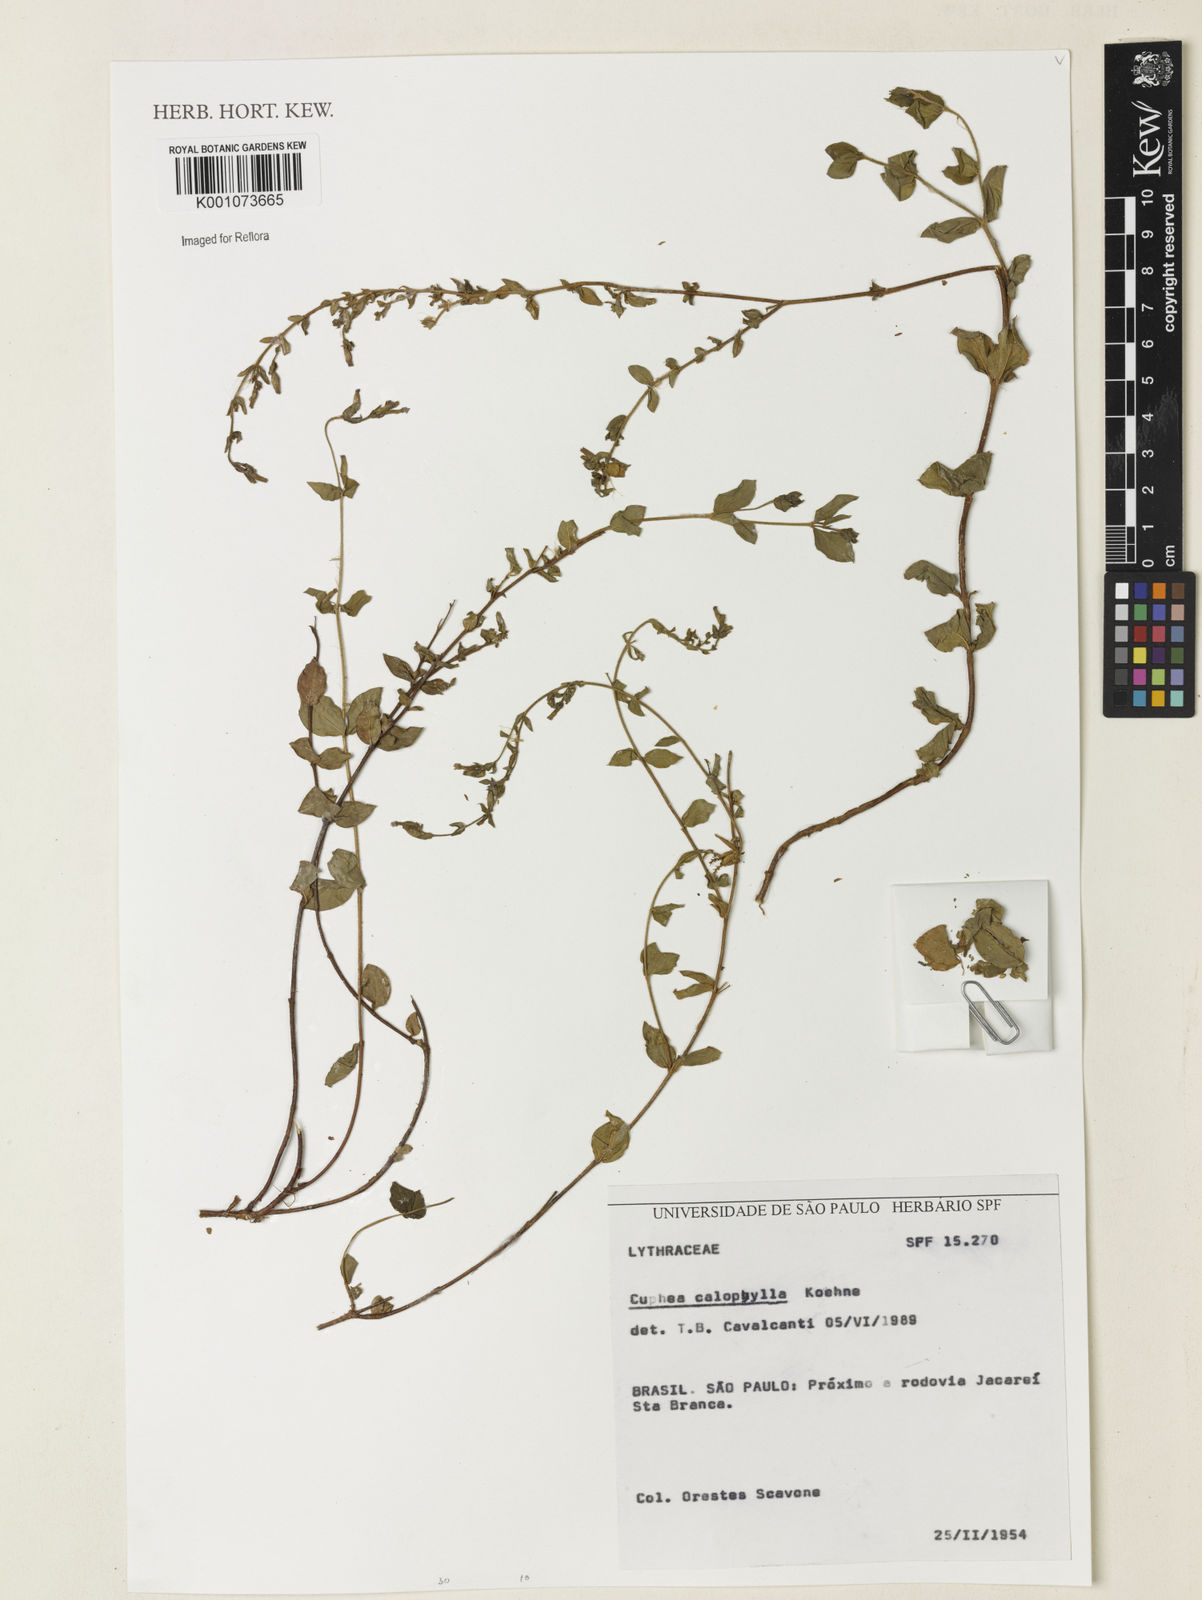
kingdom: Plantae
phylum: Tracheophyta
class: Magnoliopsida
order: Myrtales
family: Lythraceae
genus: Cuphea
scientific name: Cuphea calophylla
